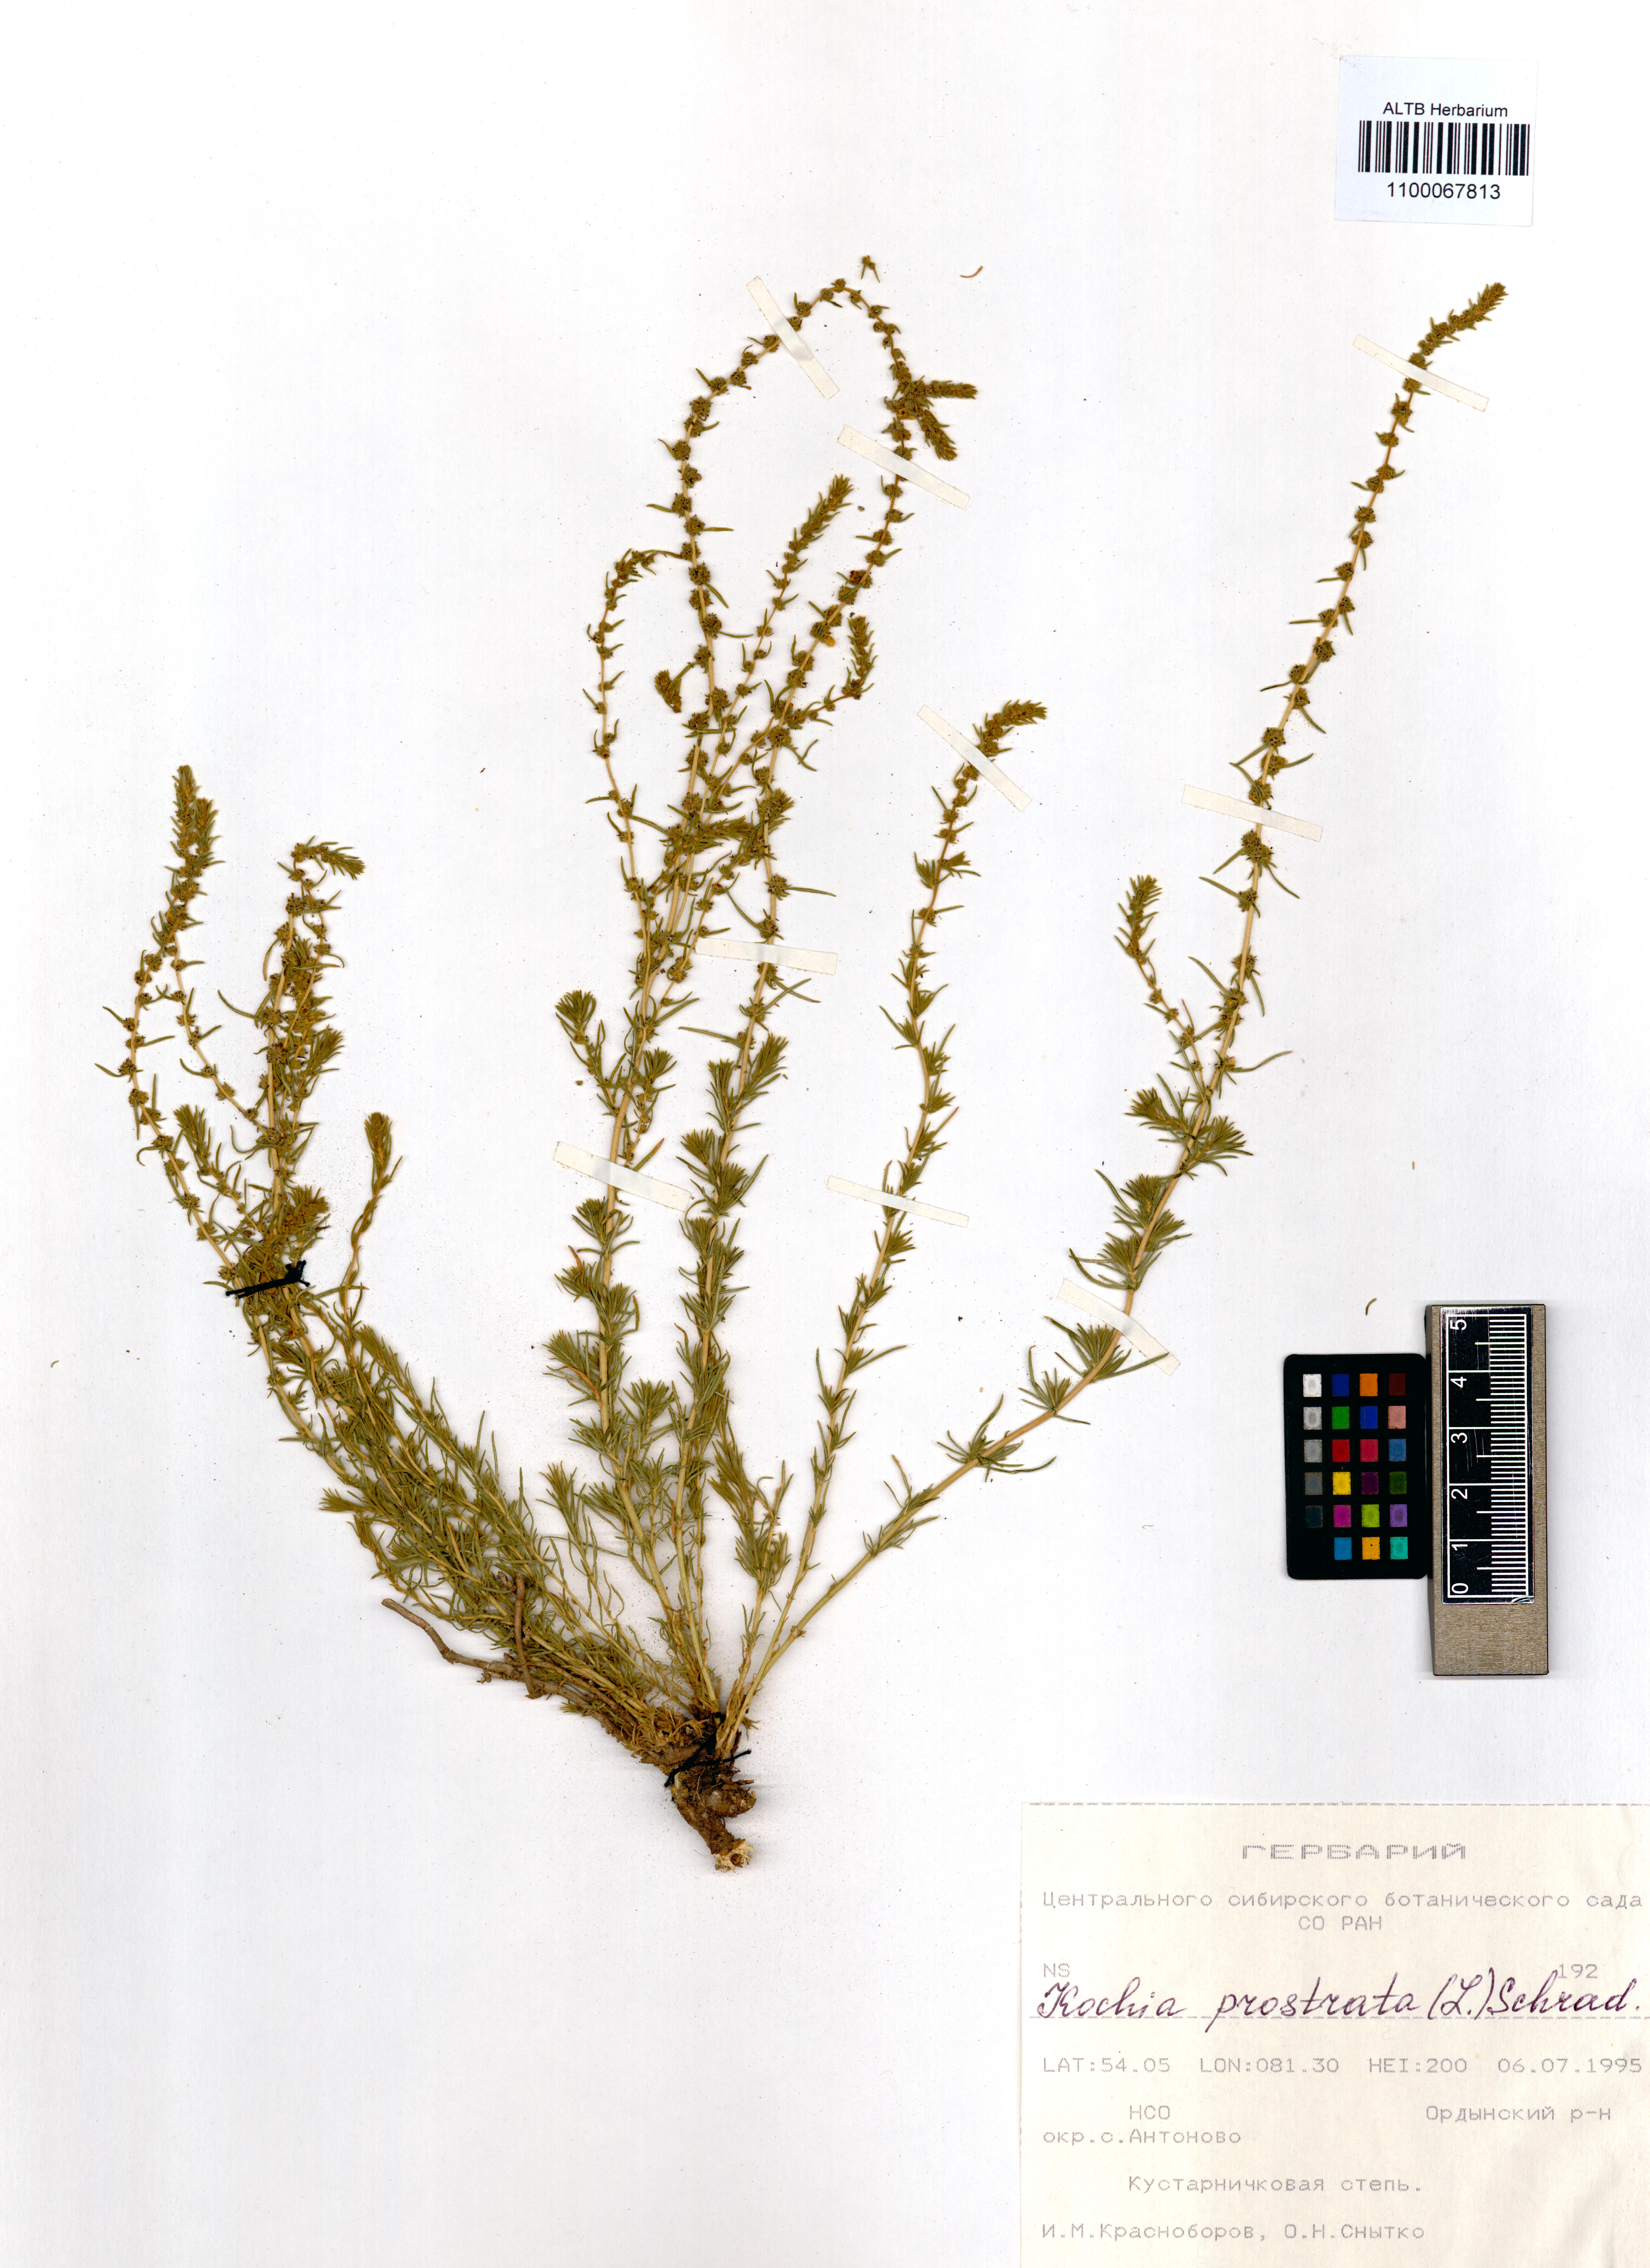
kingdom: Plantae
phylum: Tracheophyta
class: Magnoliopsida
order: Caryophyllales
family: Amaranthaceae
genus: Bassia
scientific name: Bassia prostrata
